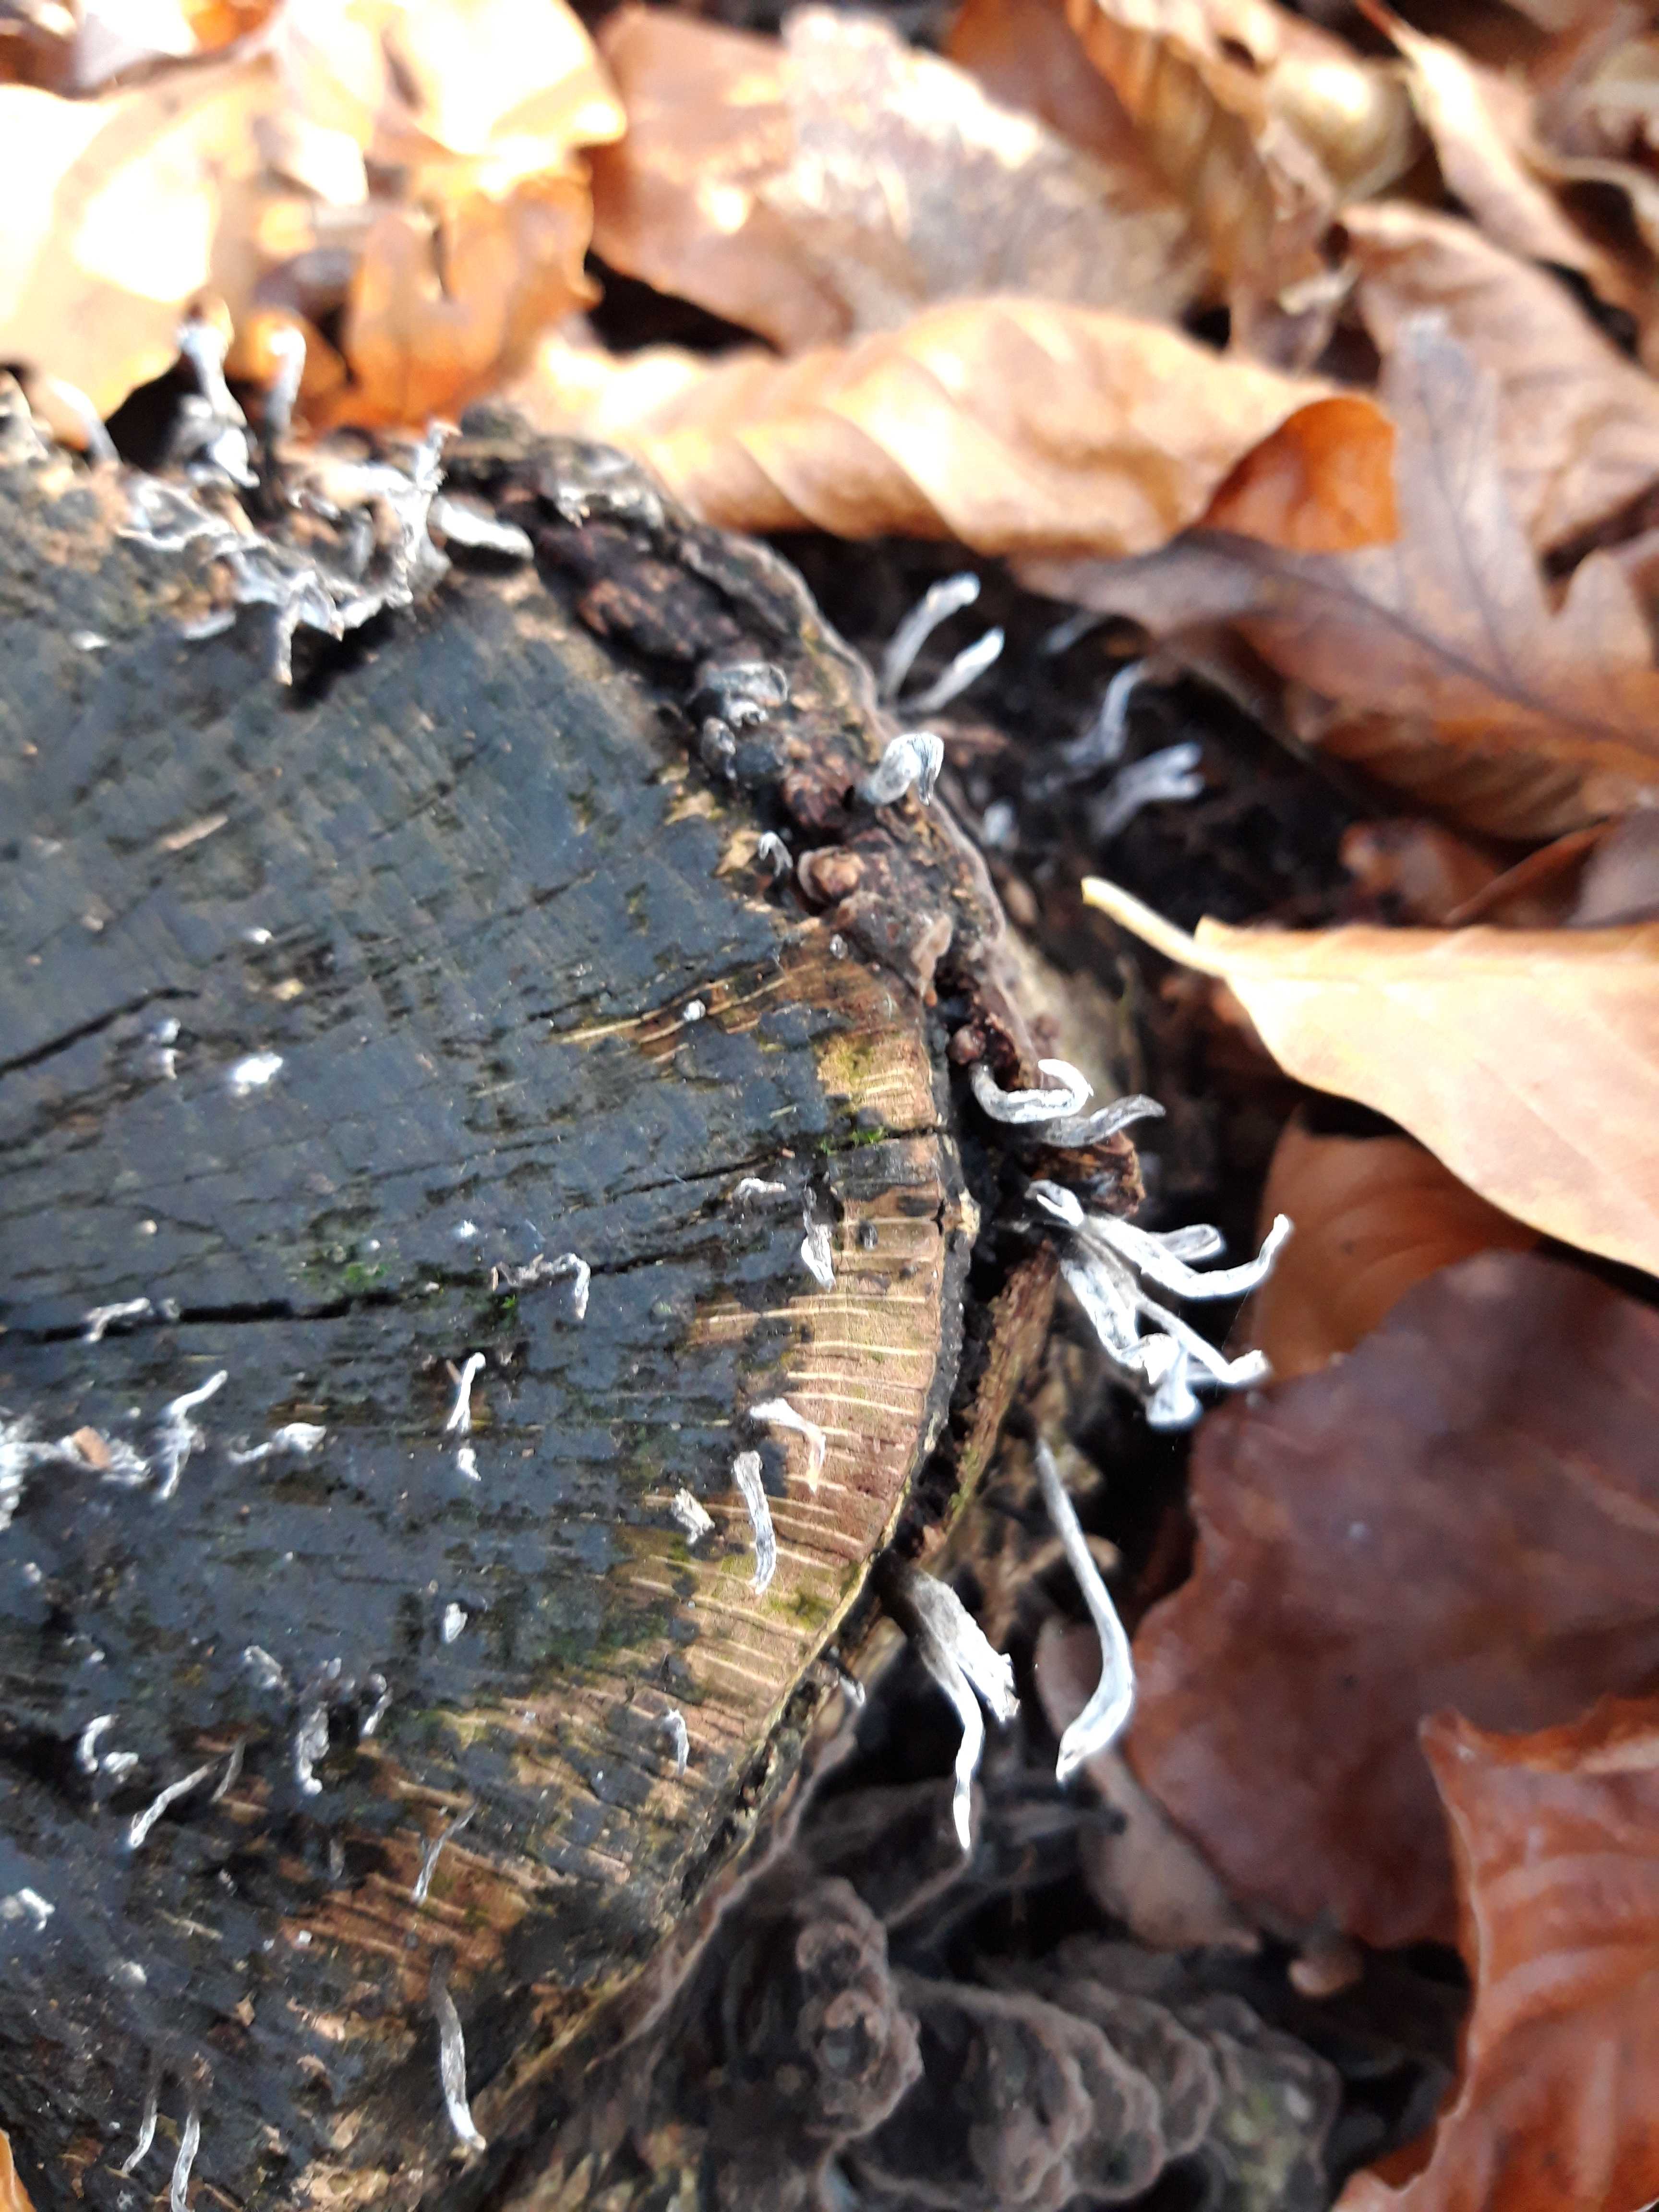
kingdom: Fungi
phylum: Ascomycota
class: Sordariomycetes
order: Xylariales
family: Xylariaceae
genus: Xylaria
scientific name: Xylaria hypoxylon
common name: grenet stødsvamp
